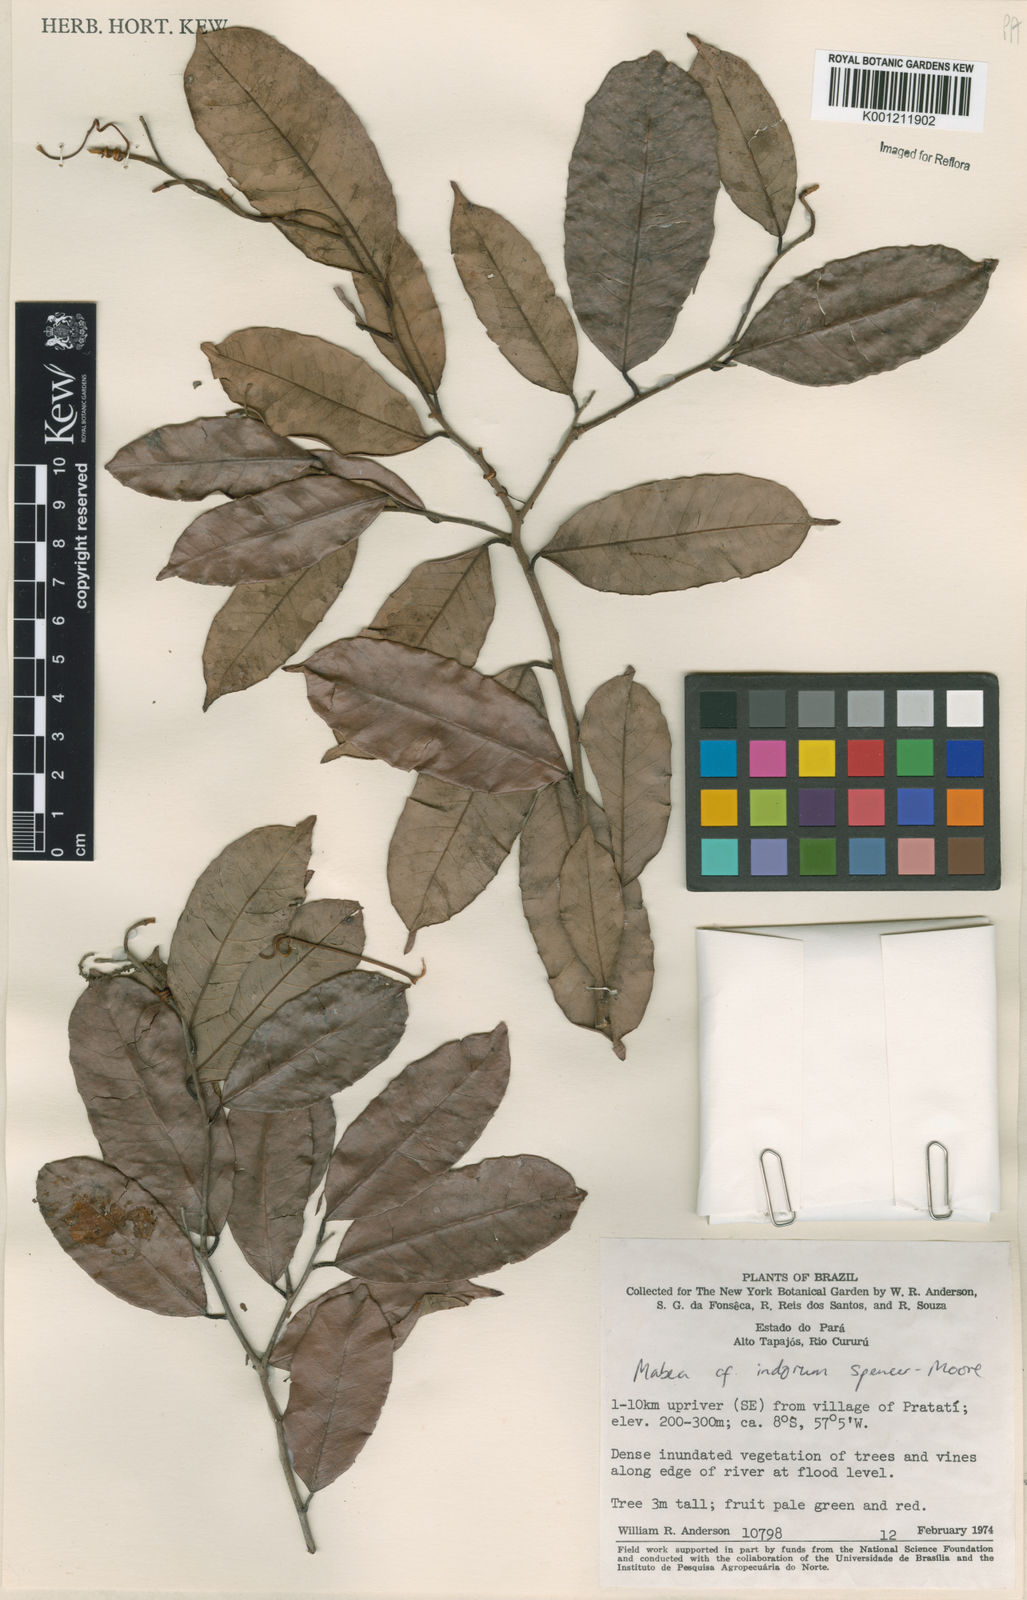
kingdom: Plantae
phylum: Tracheophyta
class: Magnoliopsida
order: Malpighiales
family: Euphorbiaceae
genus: Mabea
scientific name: Mabea paniculata
